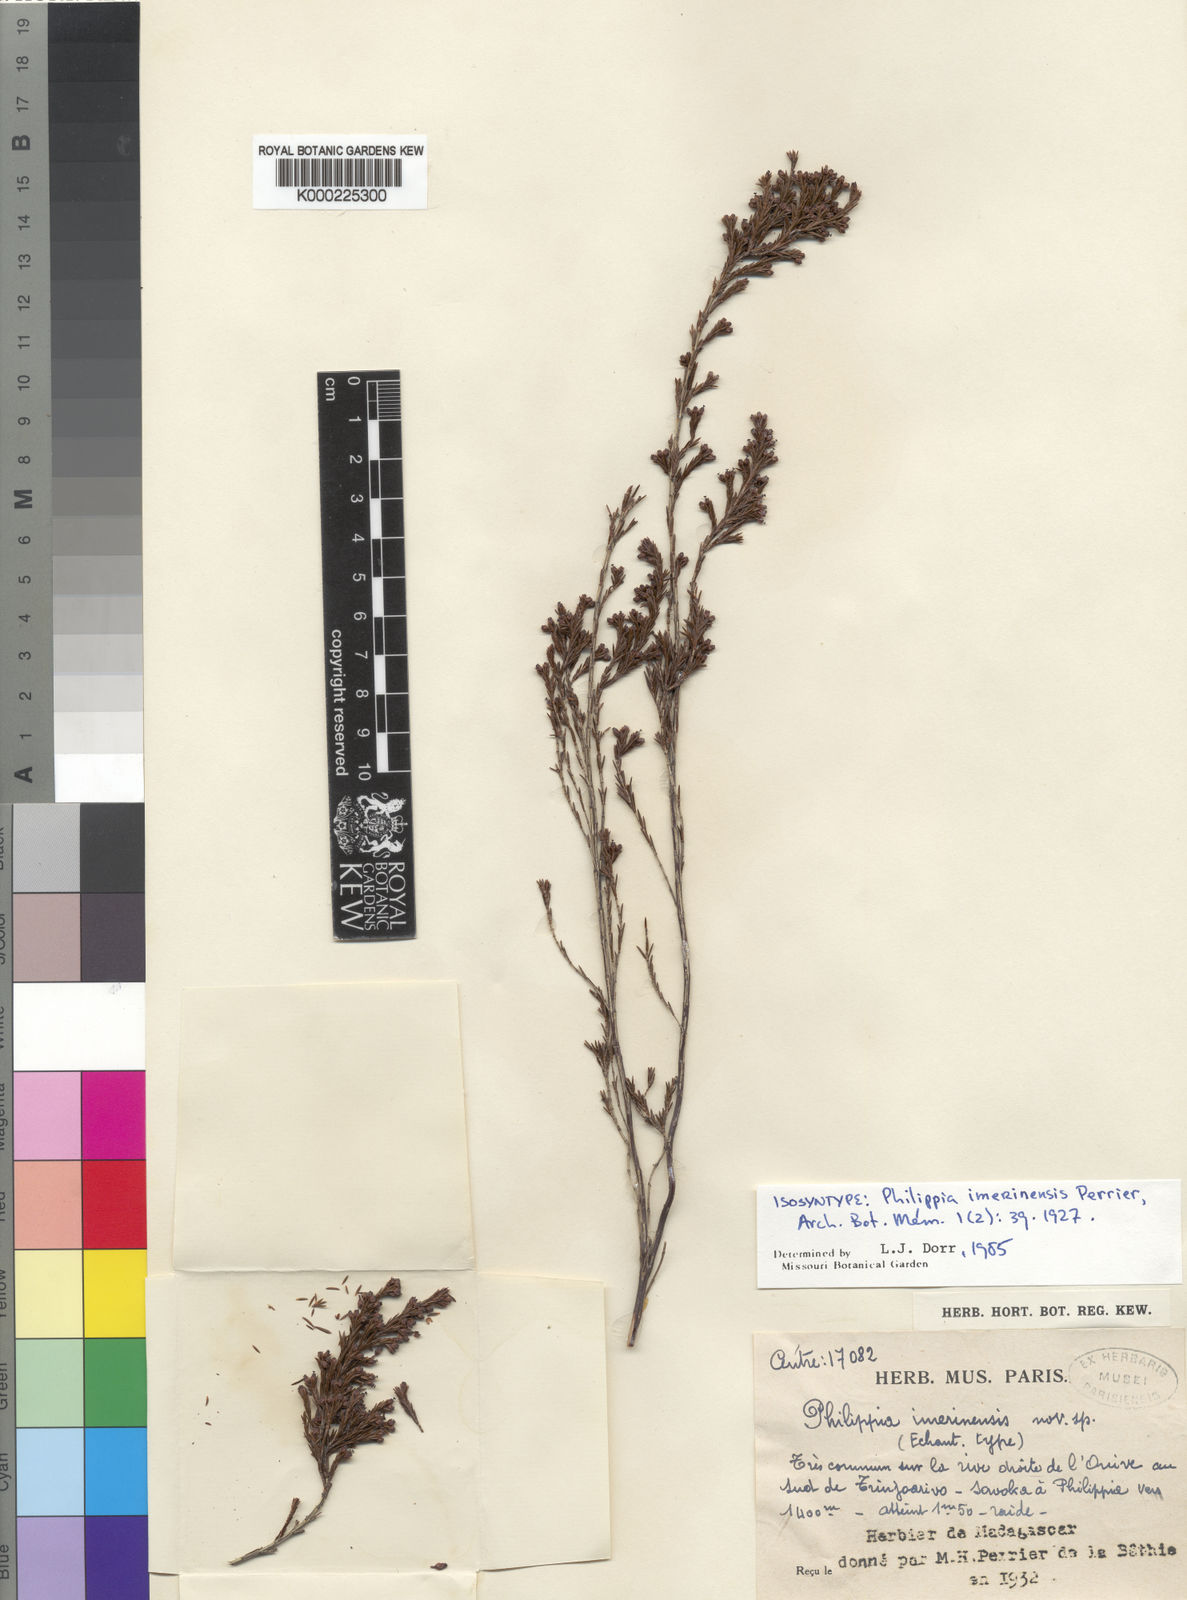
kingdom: Plantae
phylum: Tracheophyta
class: Magnoliopsida
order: Ericales
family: Ericaceae
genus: Erica
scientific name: Erica imerinensis
